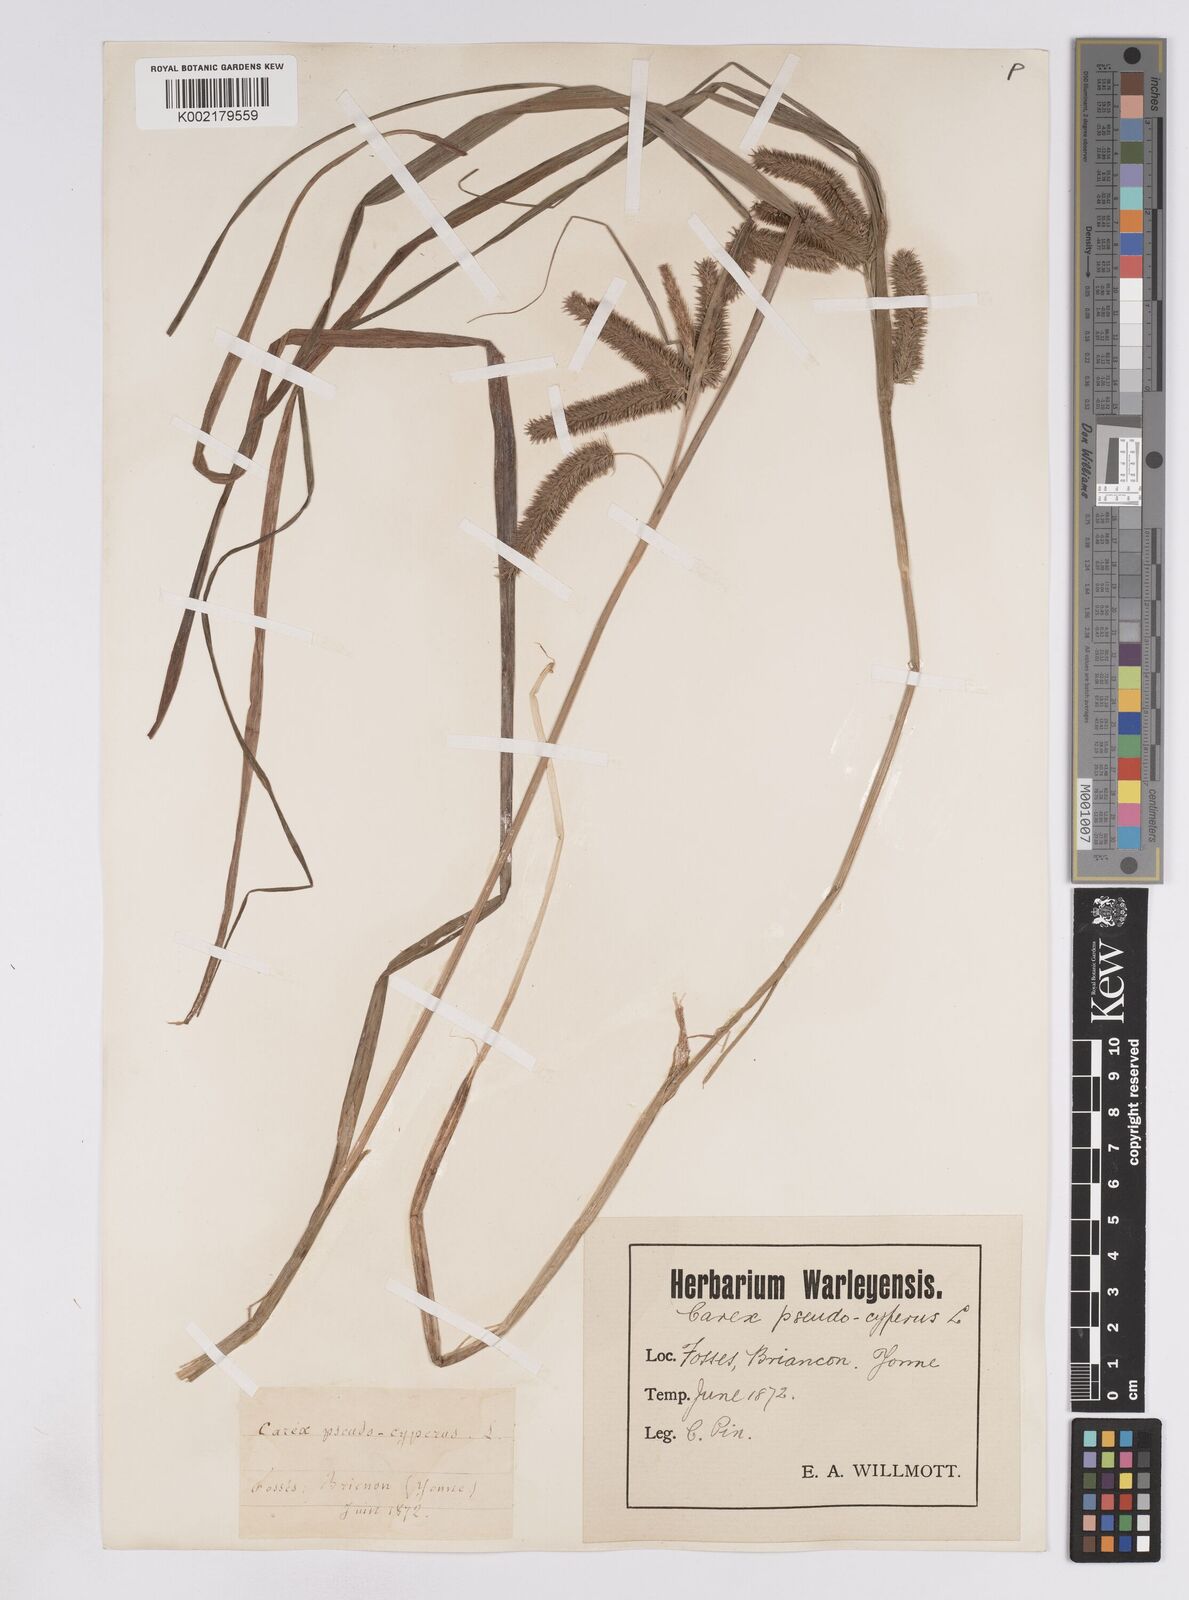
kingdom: Plantae
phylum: Tracheophyta
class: Liliopsida
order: Poales
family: Cyperaceae
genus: Carex
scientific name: Carex pseudocyperus
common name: Cyperus sedge
